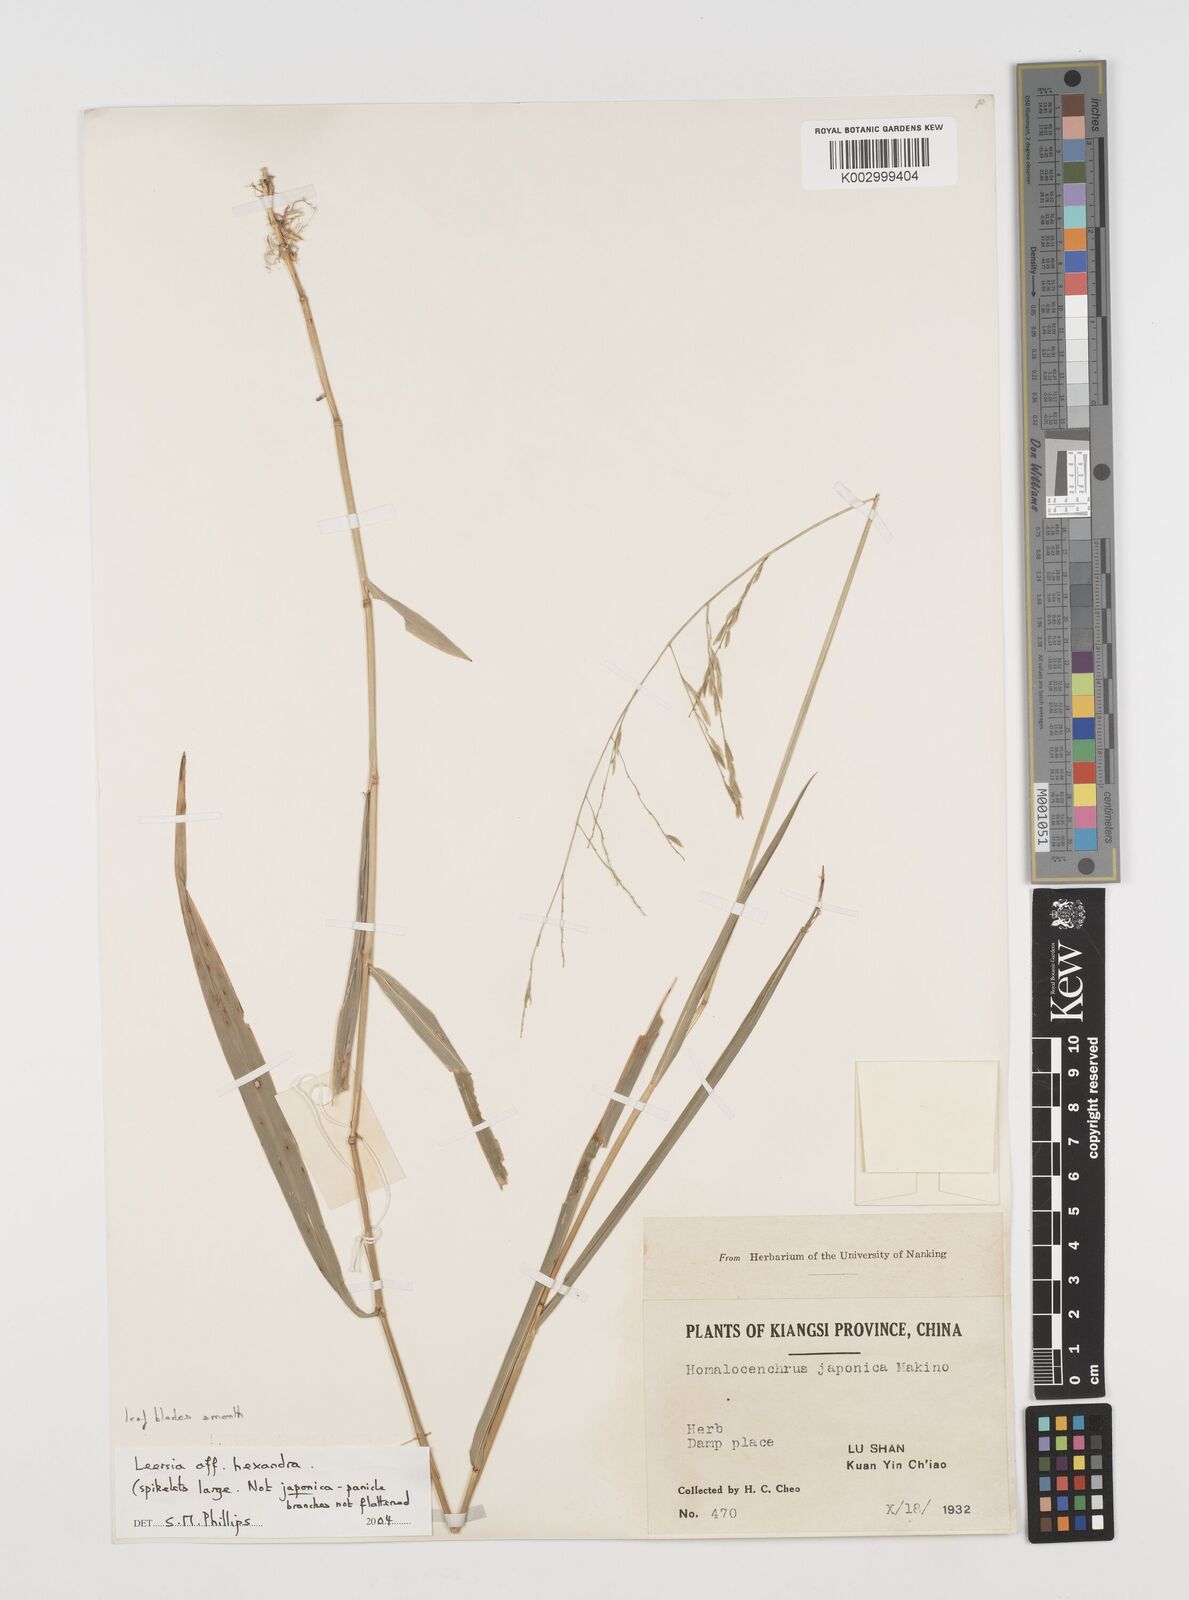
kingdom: Plantae
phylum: Tracheophyta
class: Liliopsida
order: Poales
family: Poaceae
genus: Leersia
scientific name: Leersia hexandra
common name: Southern cut grass
